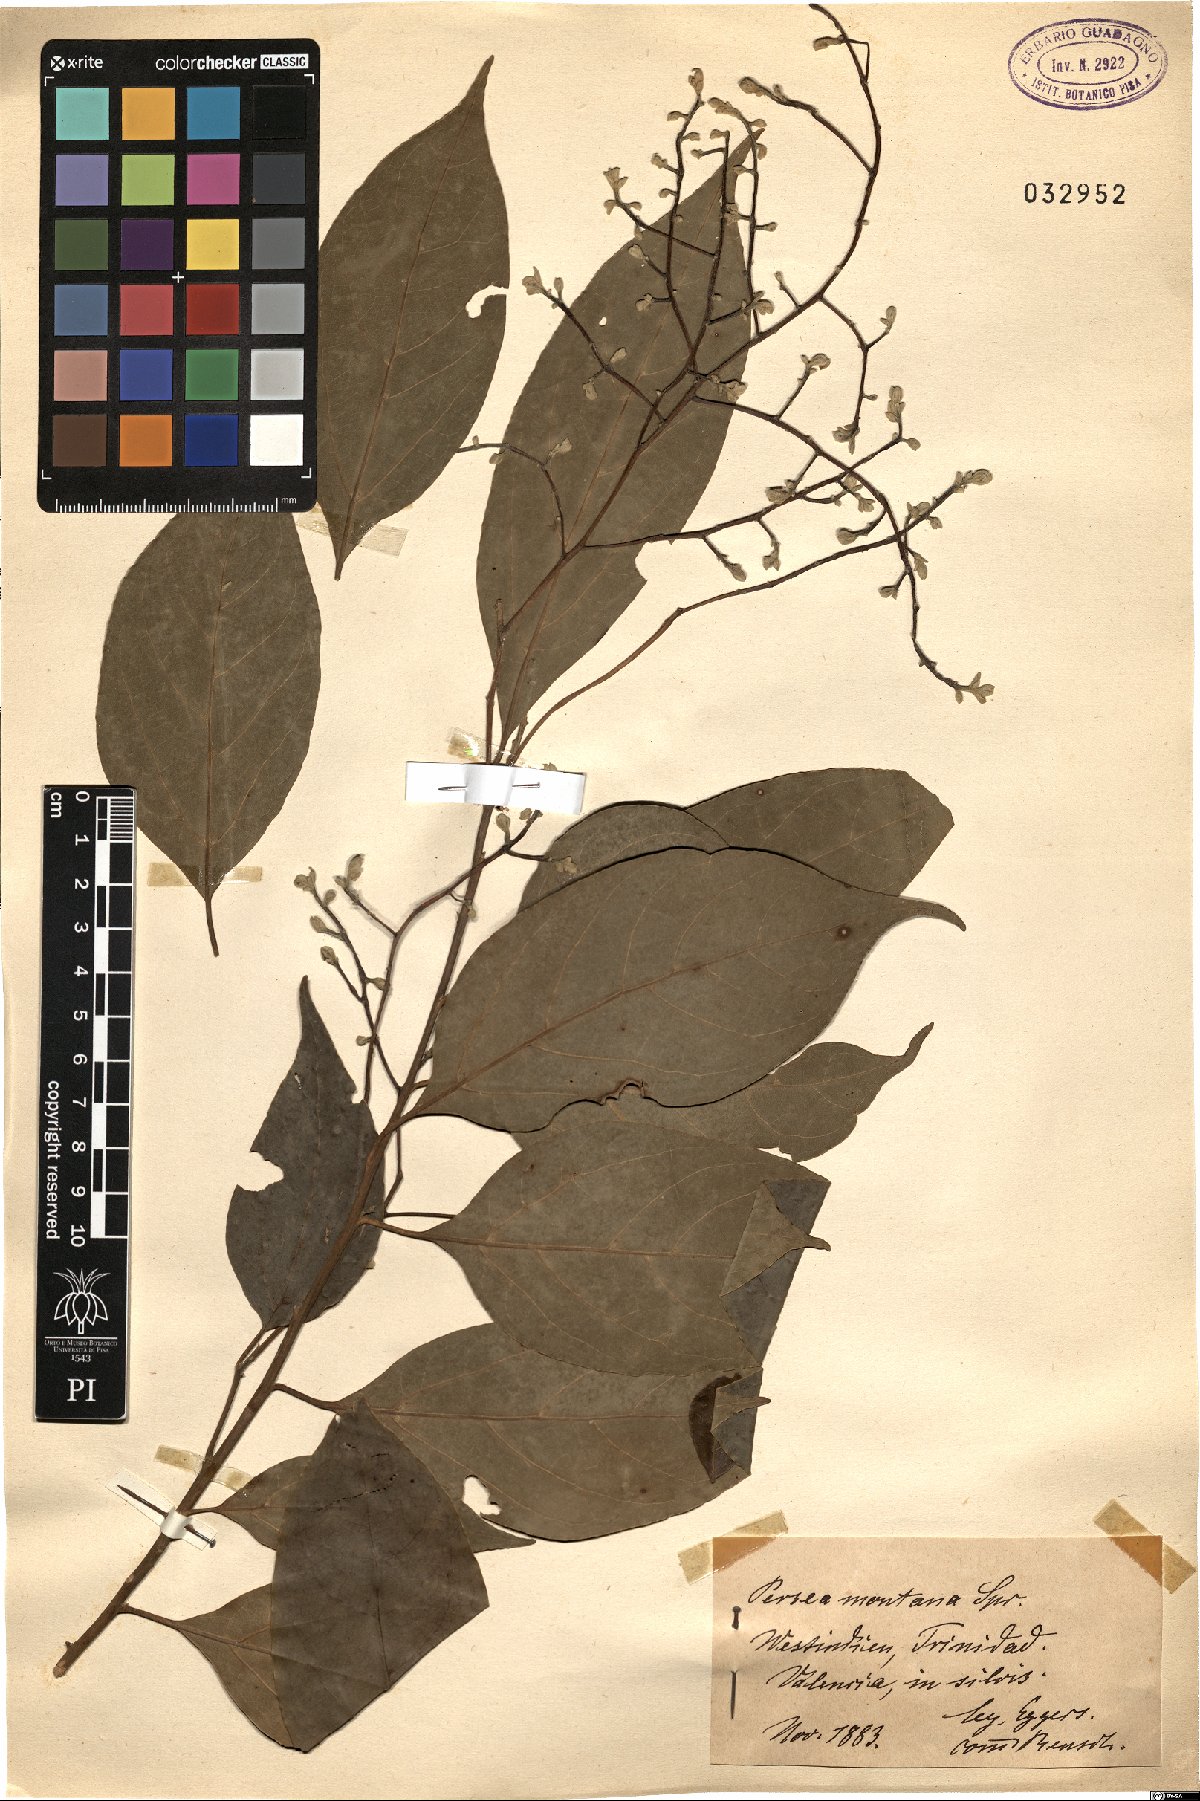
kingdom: Plantae
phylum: Tracheophyta
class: Magnoliopsida
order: Laurales
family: Lauraceae
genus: Aiouea
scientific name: Aiouea montana
